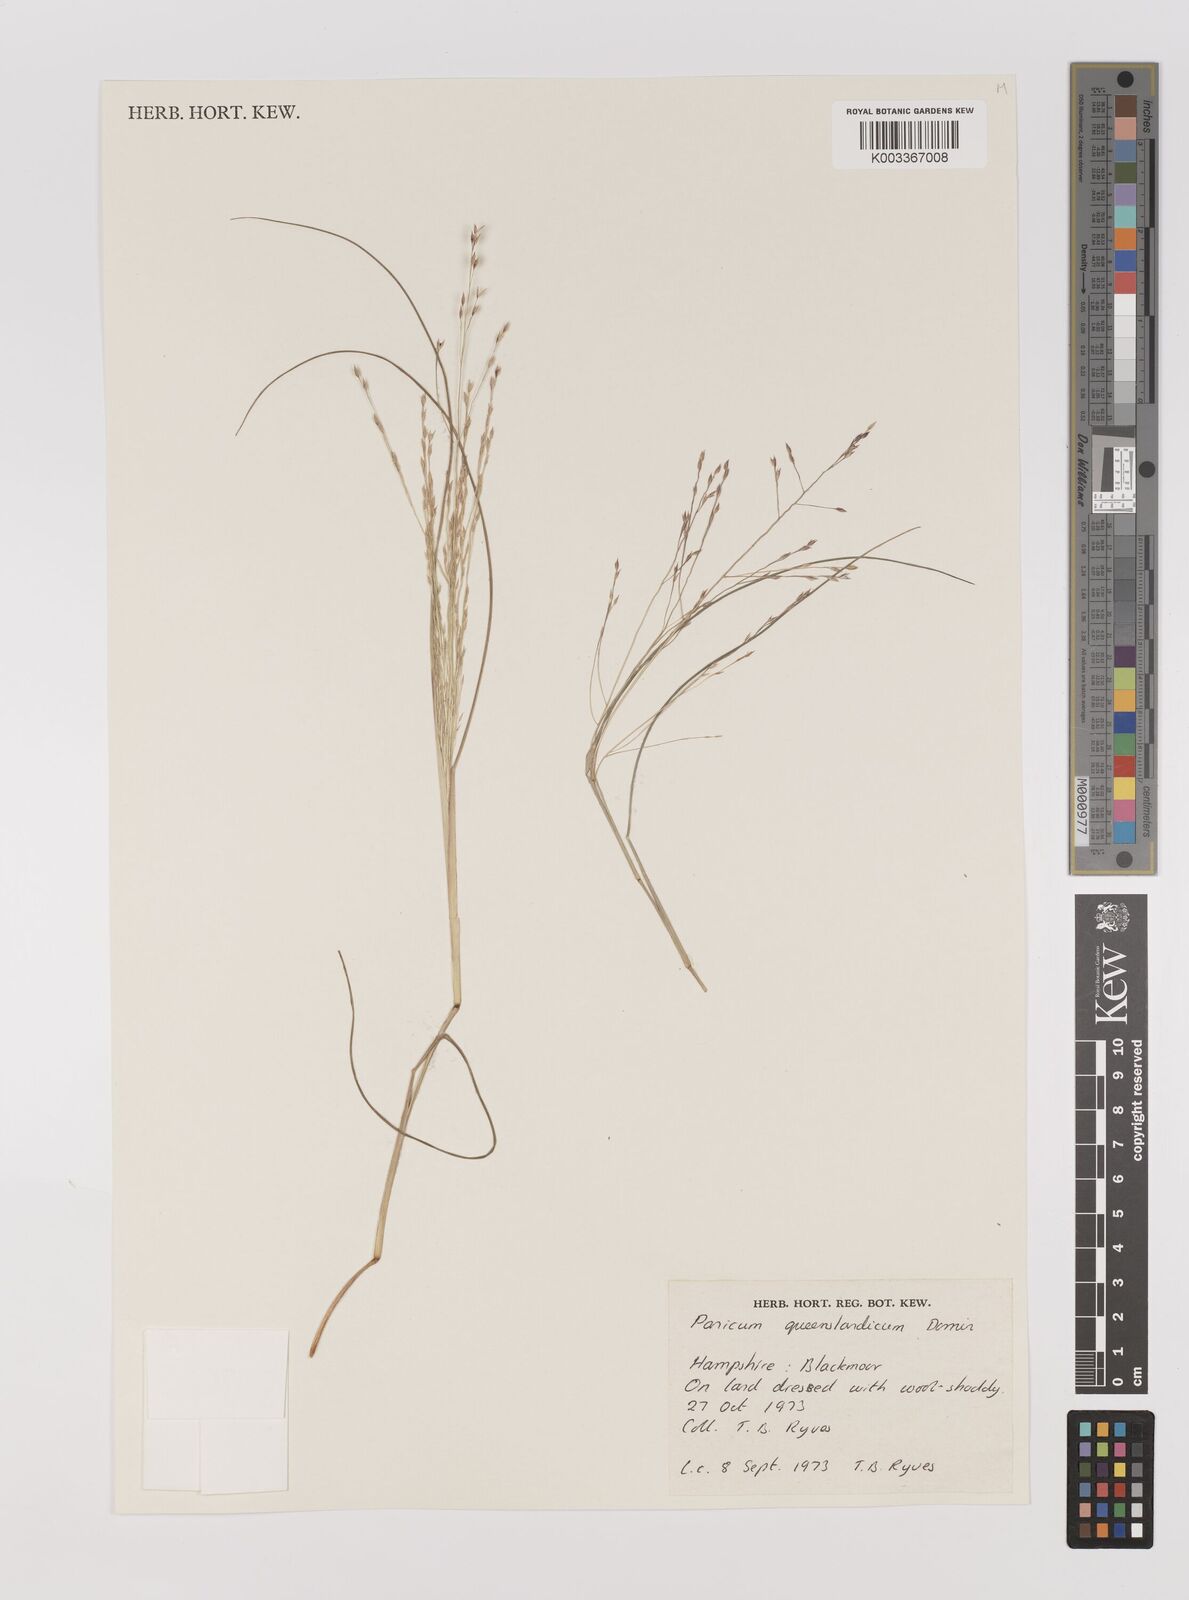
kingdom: Plantae
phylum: Tracheophyta
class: Liliopsida
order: Poales
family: Poaceae
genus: Panicum
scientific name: Panicum queenslandicum
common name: Yabila grass
